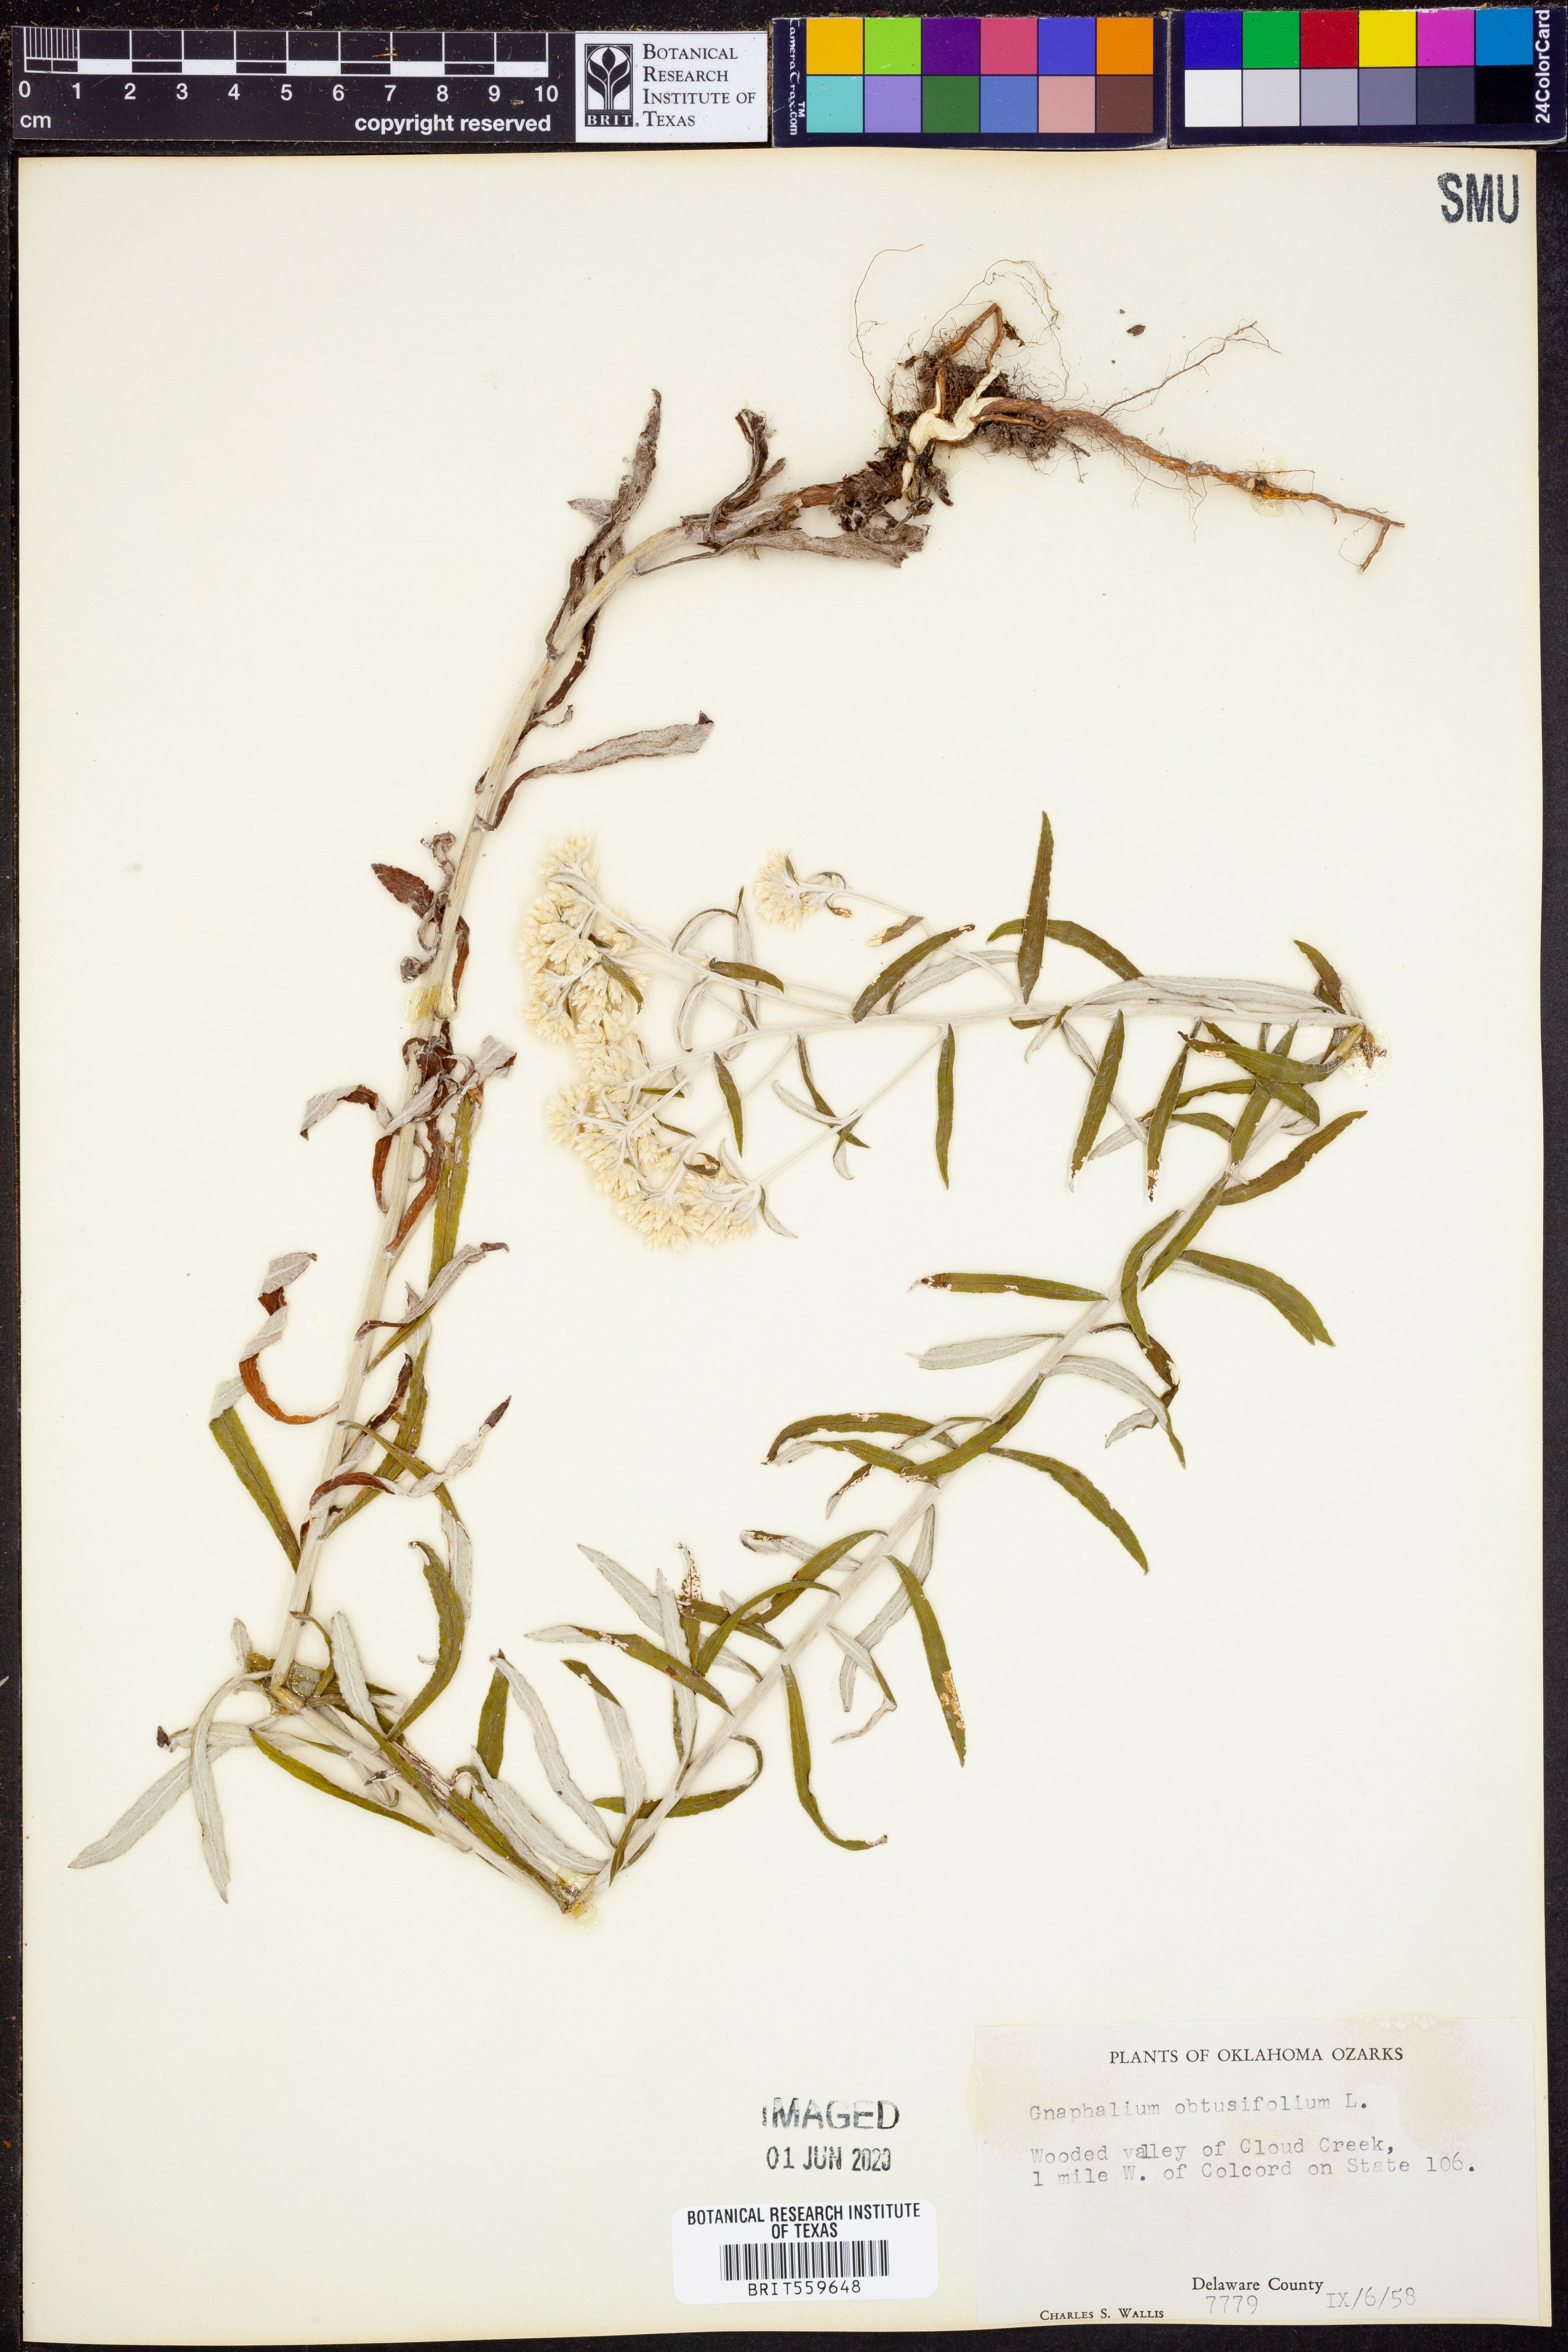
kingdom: Plantae
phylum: Tracheophyta
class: Magnoliopsida
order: Asterales
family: Asteraceae
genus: Pseudognaphalium
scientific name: Pseudognaphalium obtusifolium
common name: Eastern rabbit-tobacco
